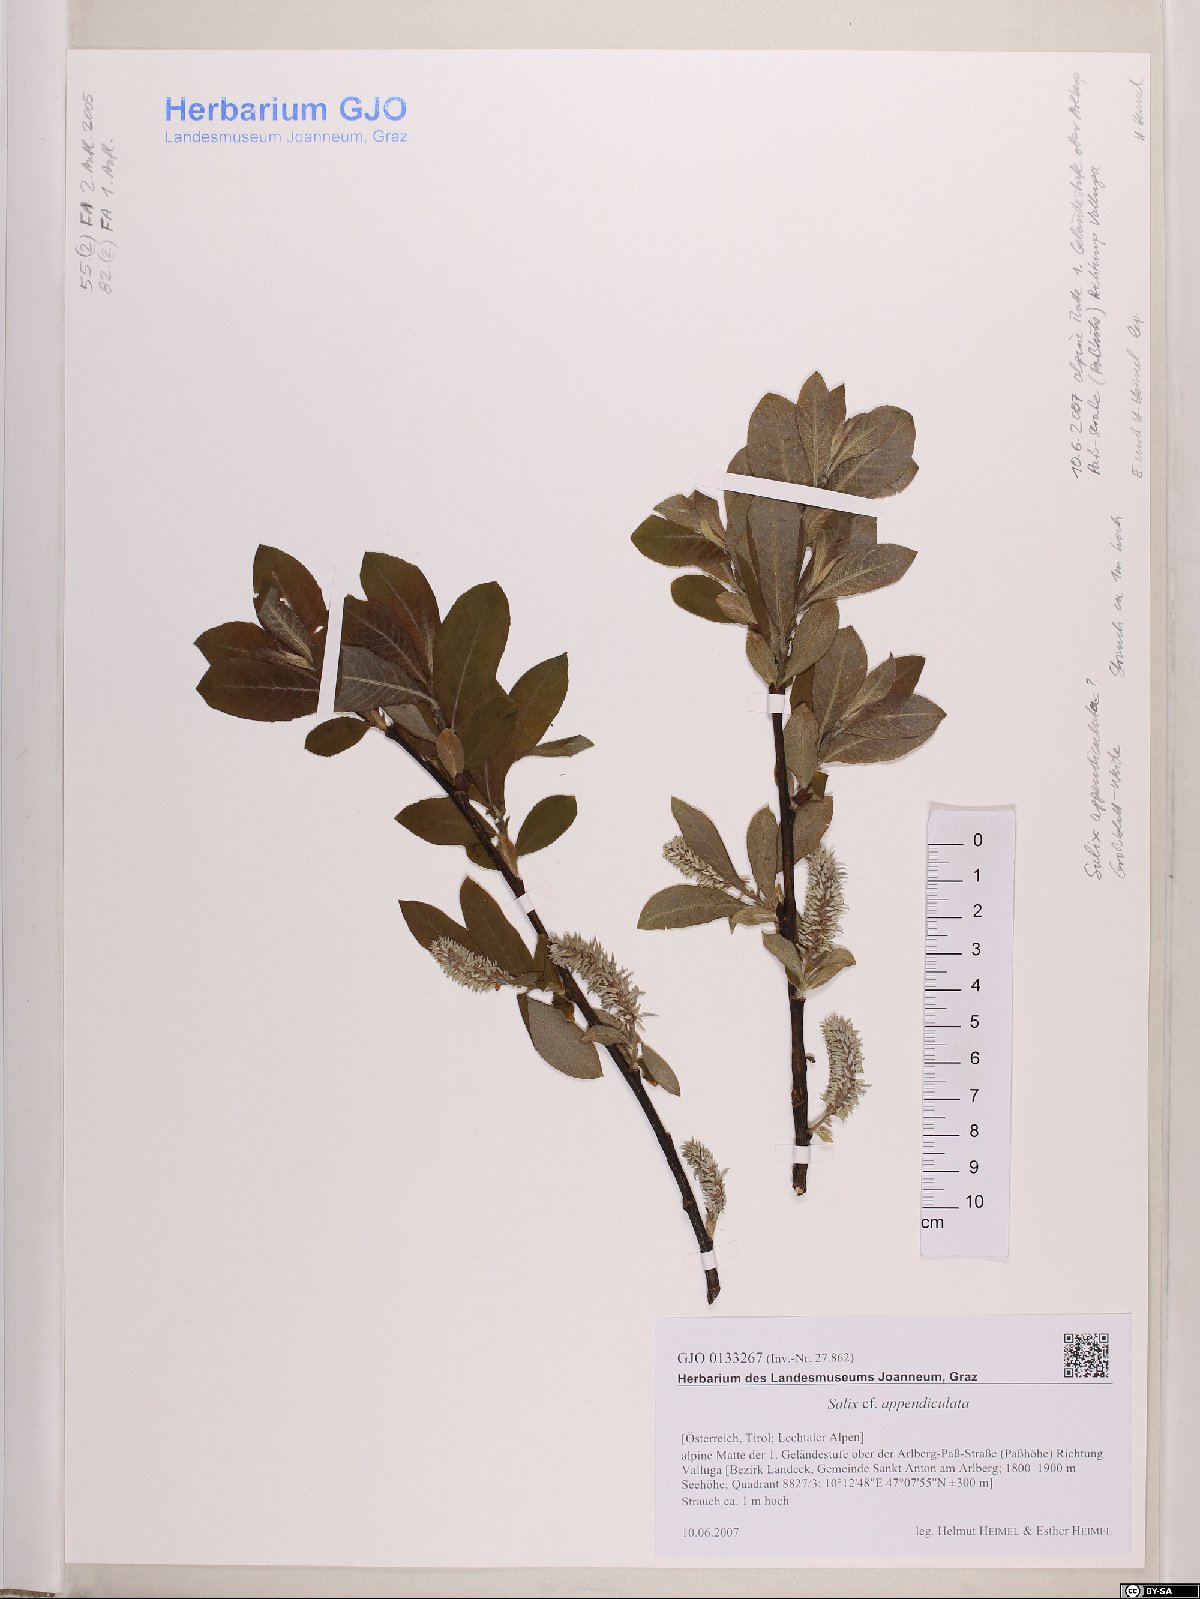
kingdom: Plantae
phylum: Tracheophyta
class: Magnoliopsida
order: Malpighiales
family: Salicaceae
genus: Salix
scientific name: Salix appendiculata
